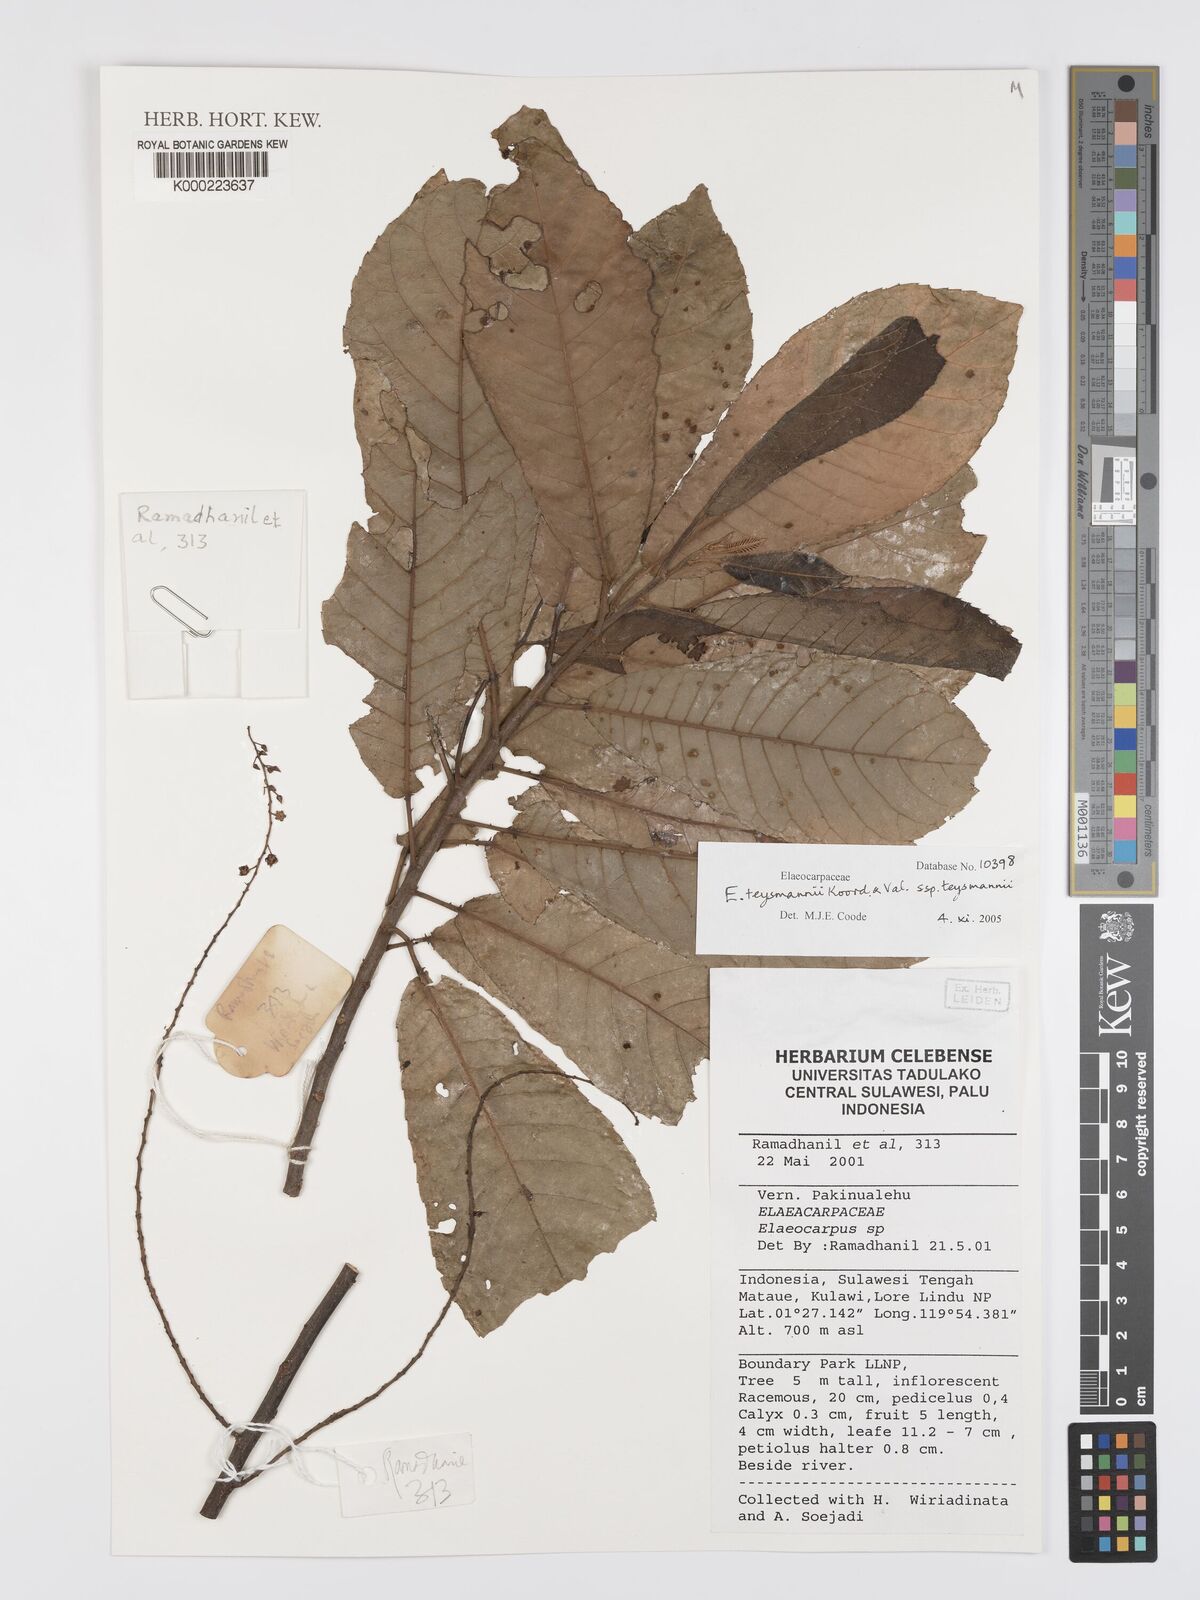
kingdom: Plantae
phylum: Tracheophyta
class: Magnoliopsida
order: Oxalidales
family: Elaeocarpaceae
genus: Elaeocarpus
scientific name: Elaeocarpus
